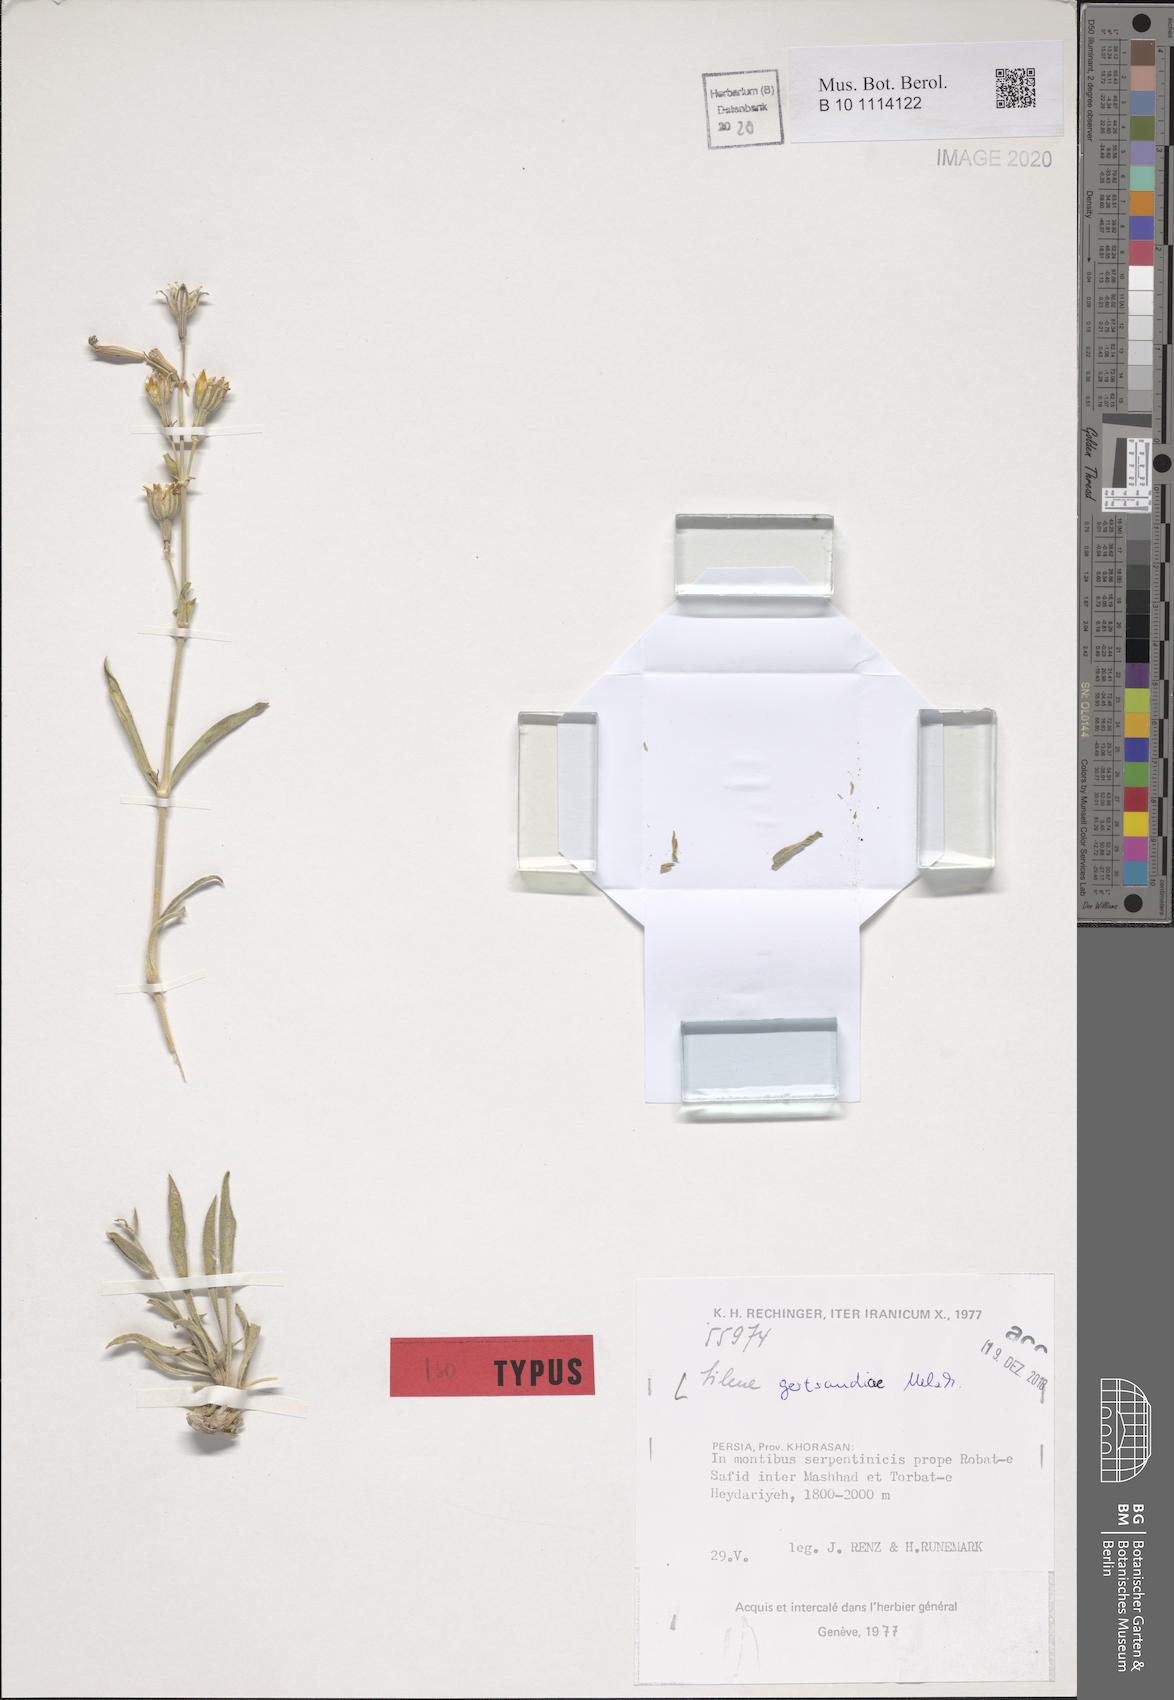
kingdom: Plantae
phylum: Tracheophyta
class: Magnoliopsida
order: Caryophyllales
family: Caryophyllaceae
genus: Silene
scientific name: Silene gertraudiae
